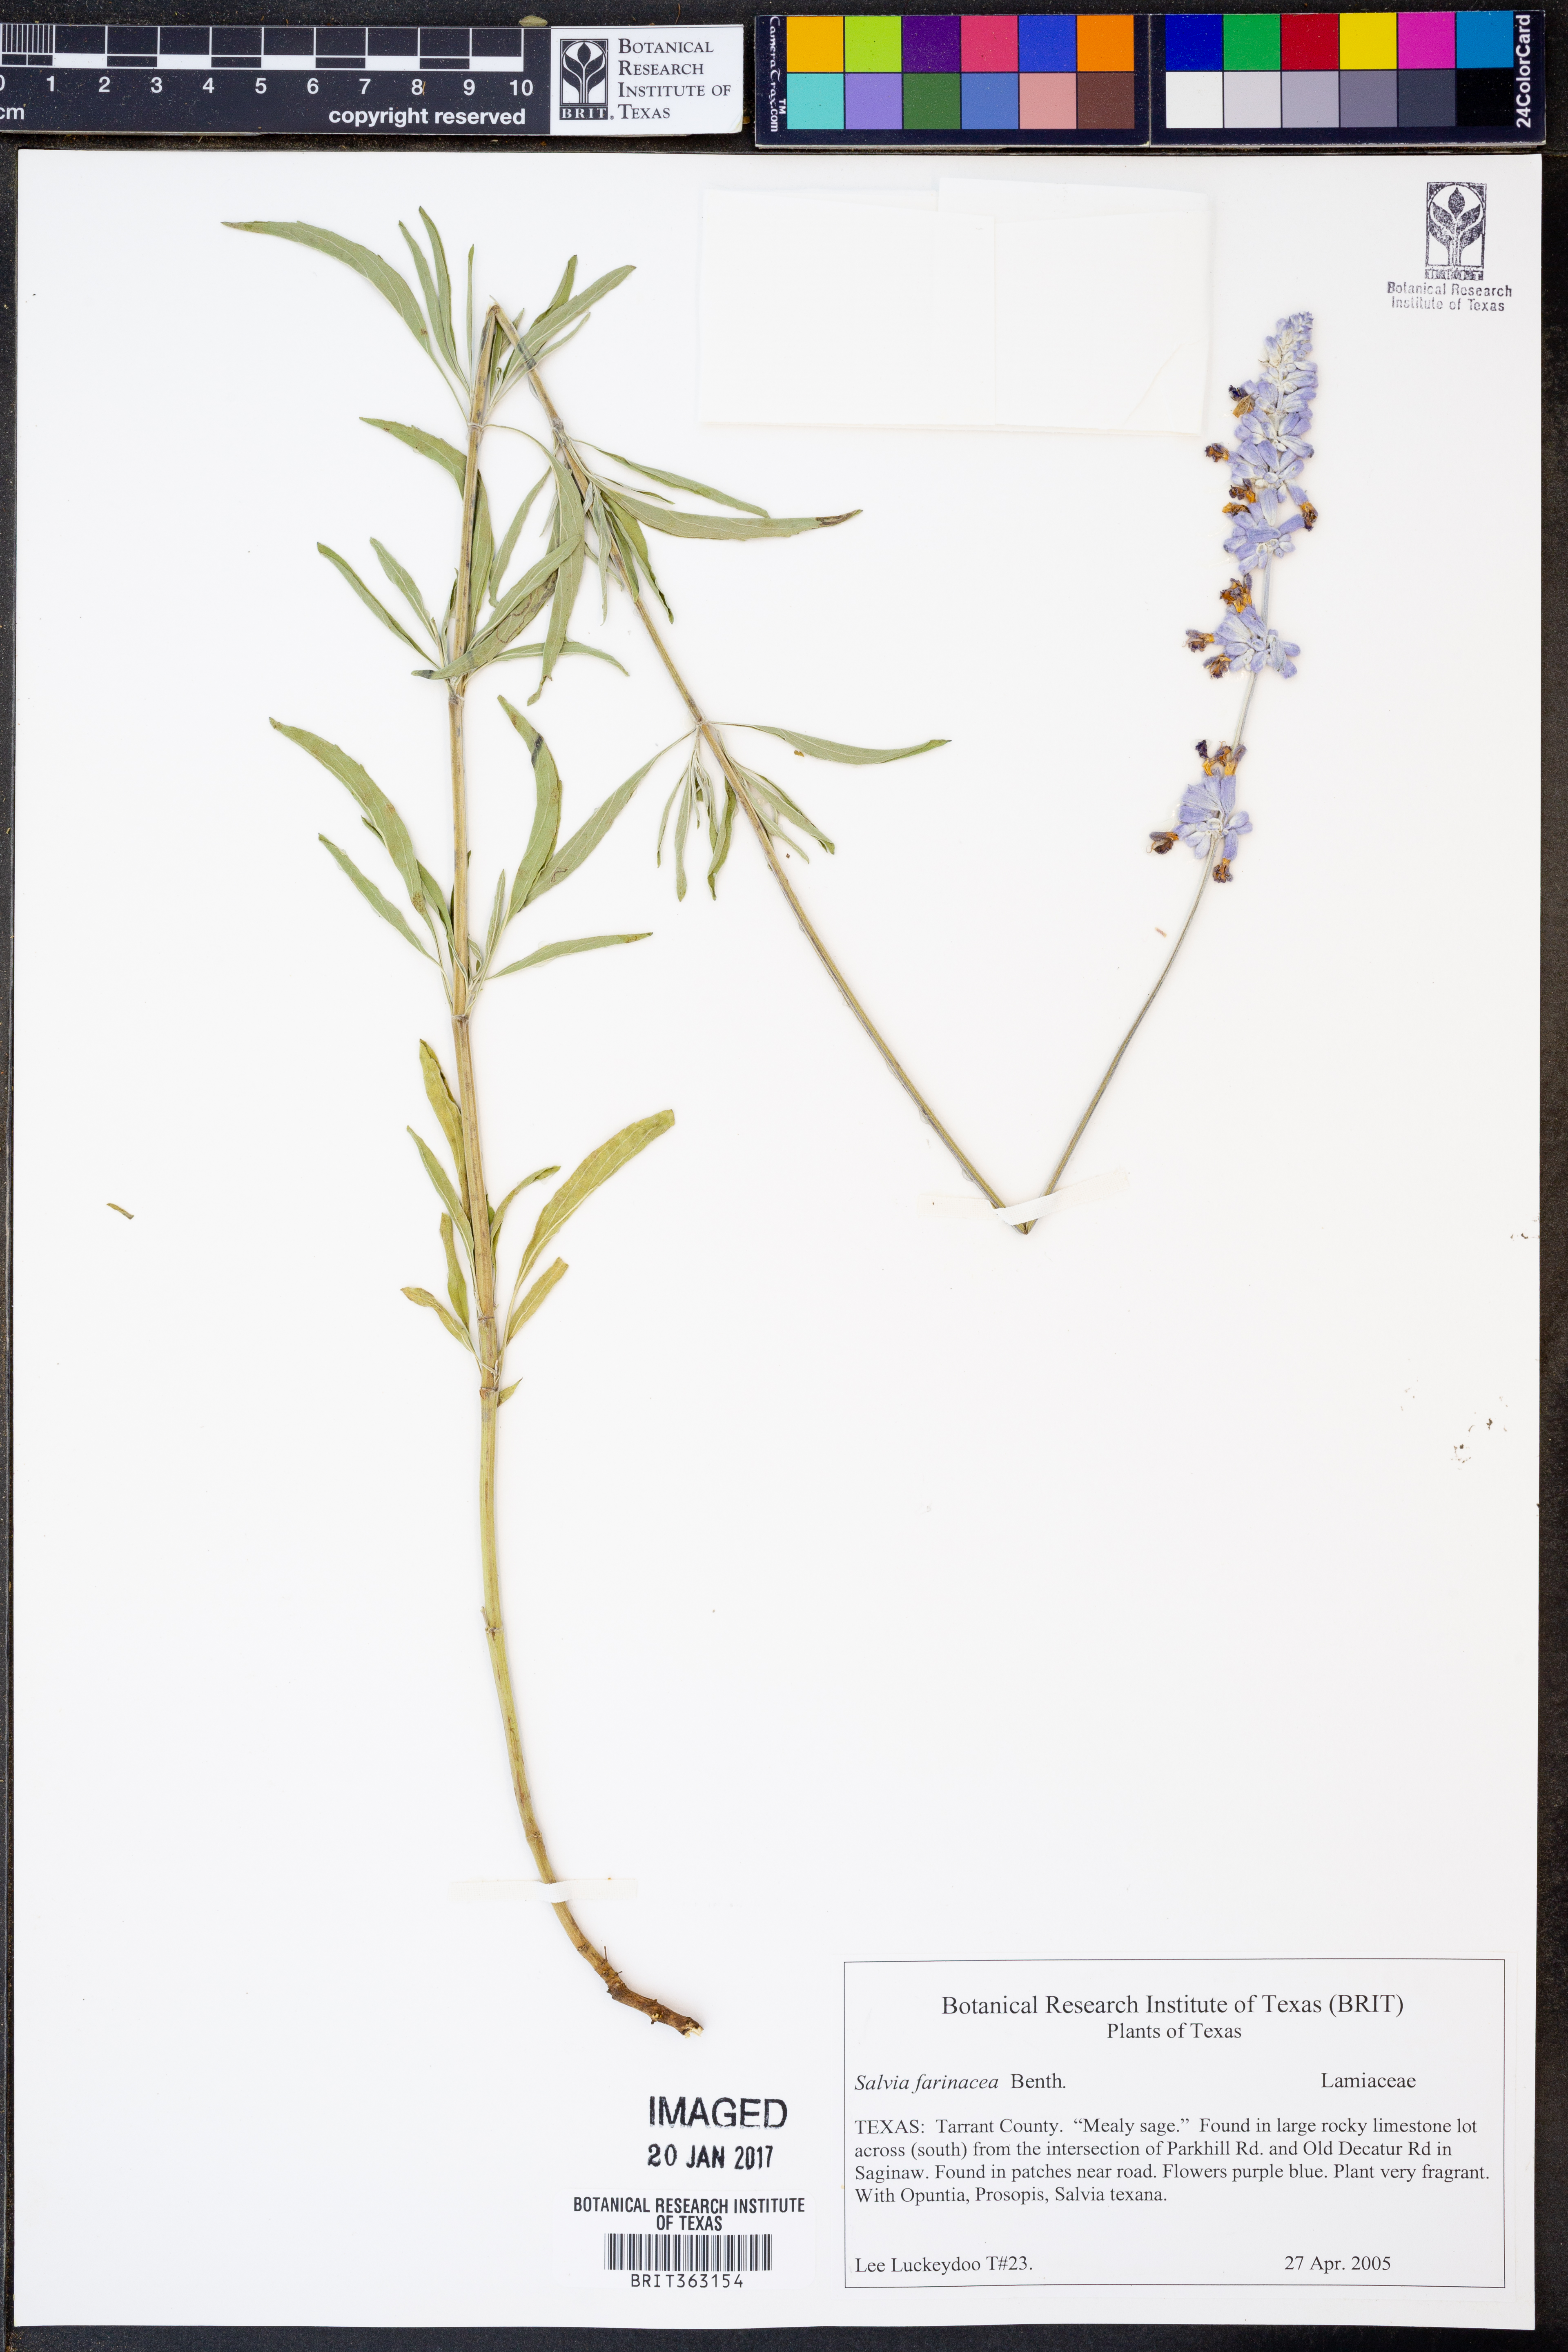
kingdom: Plantae
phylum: Tracheophyta
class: Magnoliopsida
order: Lamiales
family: Lamiaceae
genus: Salvia
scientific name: Salvia farinacea
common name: Mealy sage
